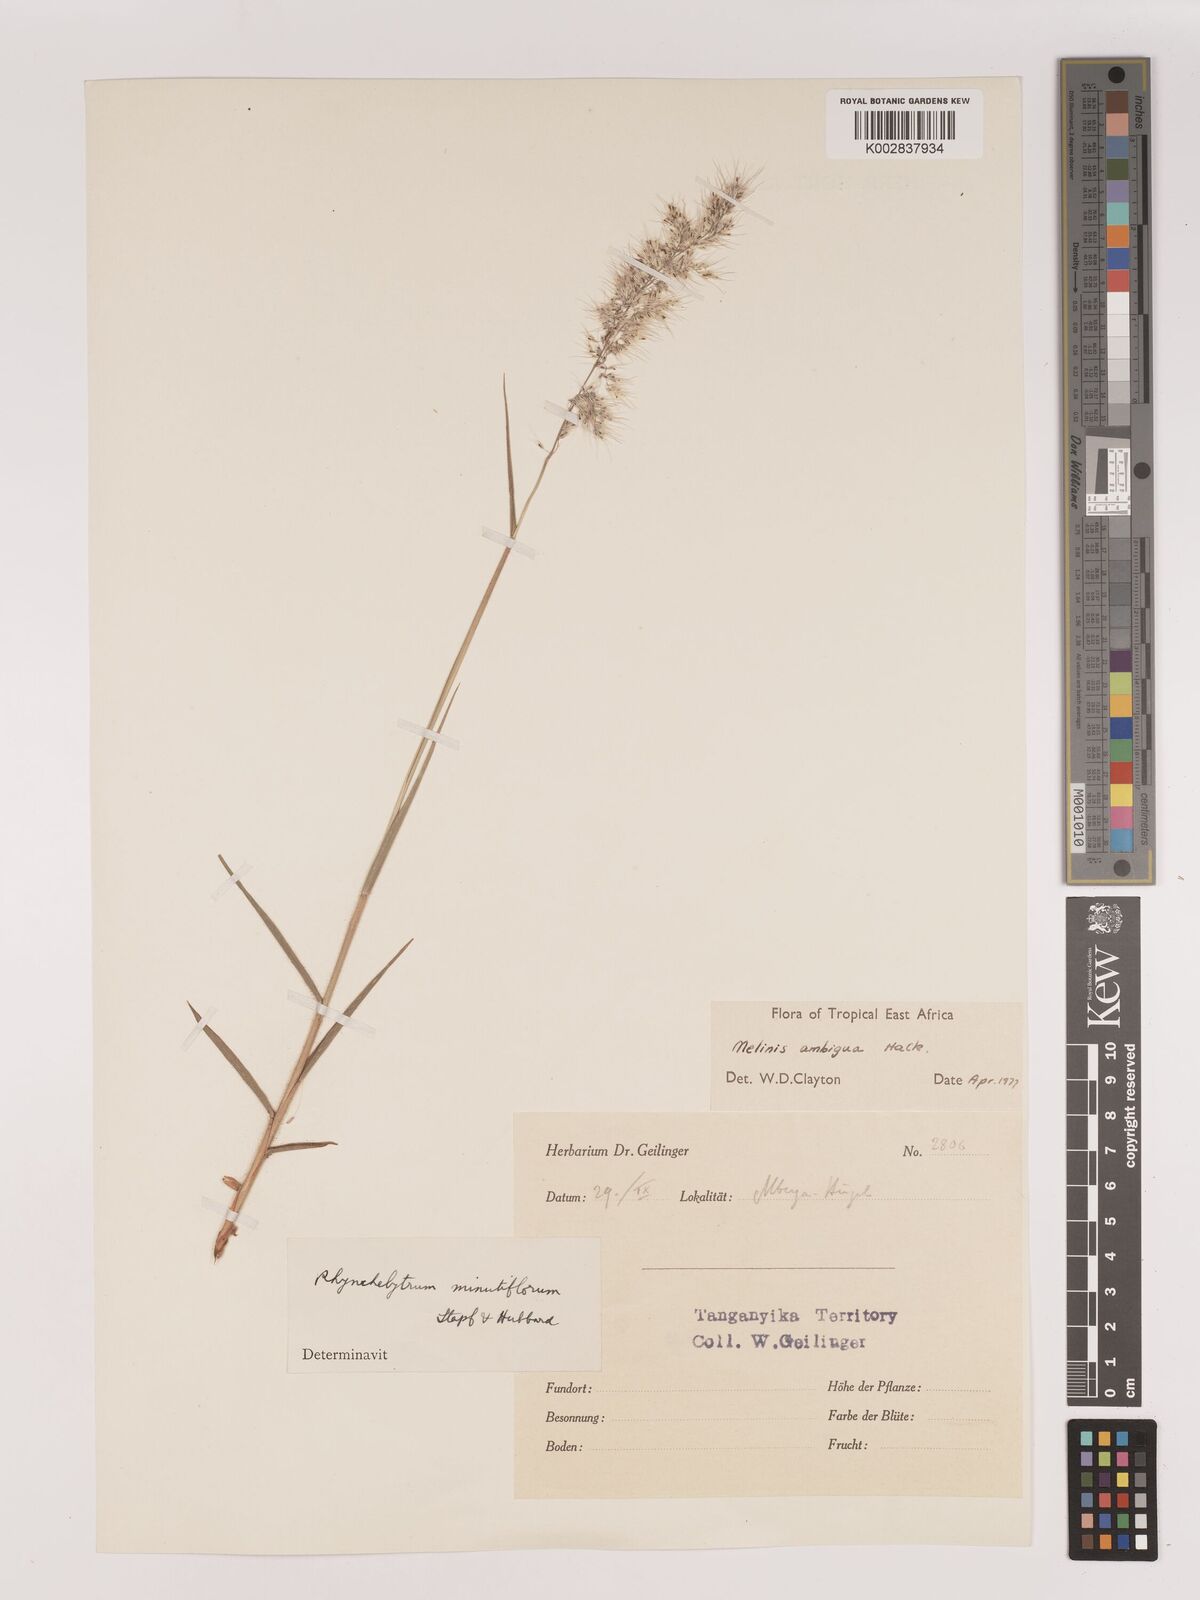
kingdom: Plantae
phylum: Tracheophyta
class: Liliopsida
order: Poales
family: Poaceae
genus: Melinis
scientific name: Melinis ambigua
